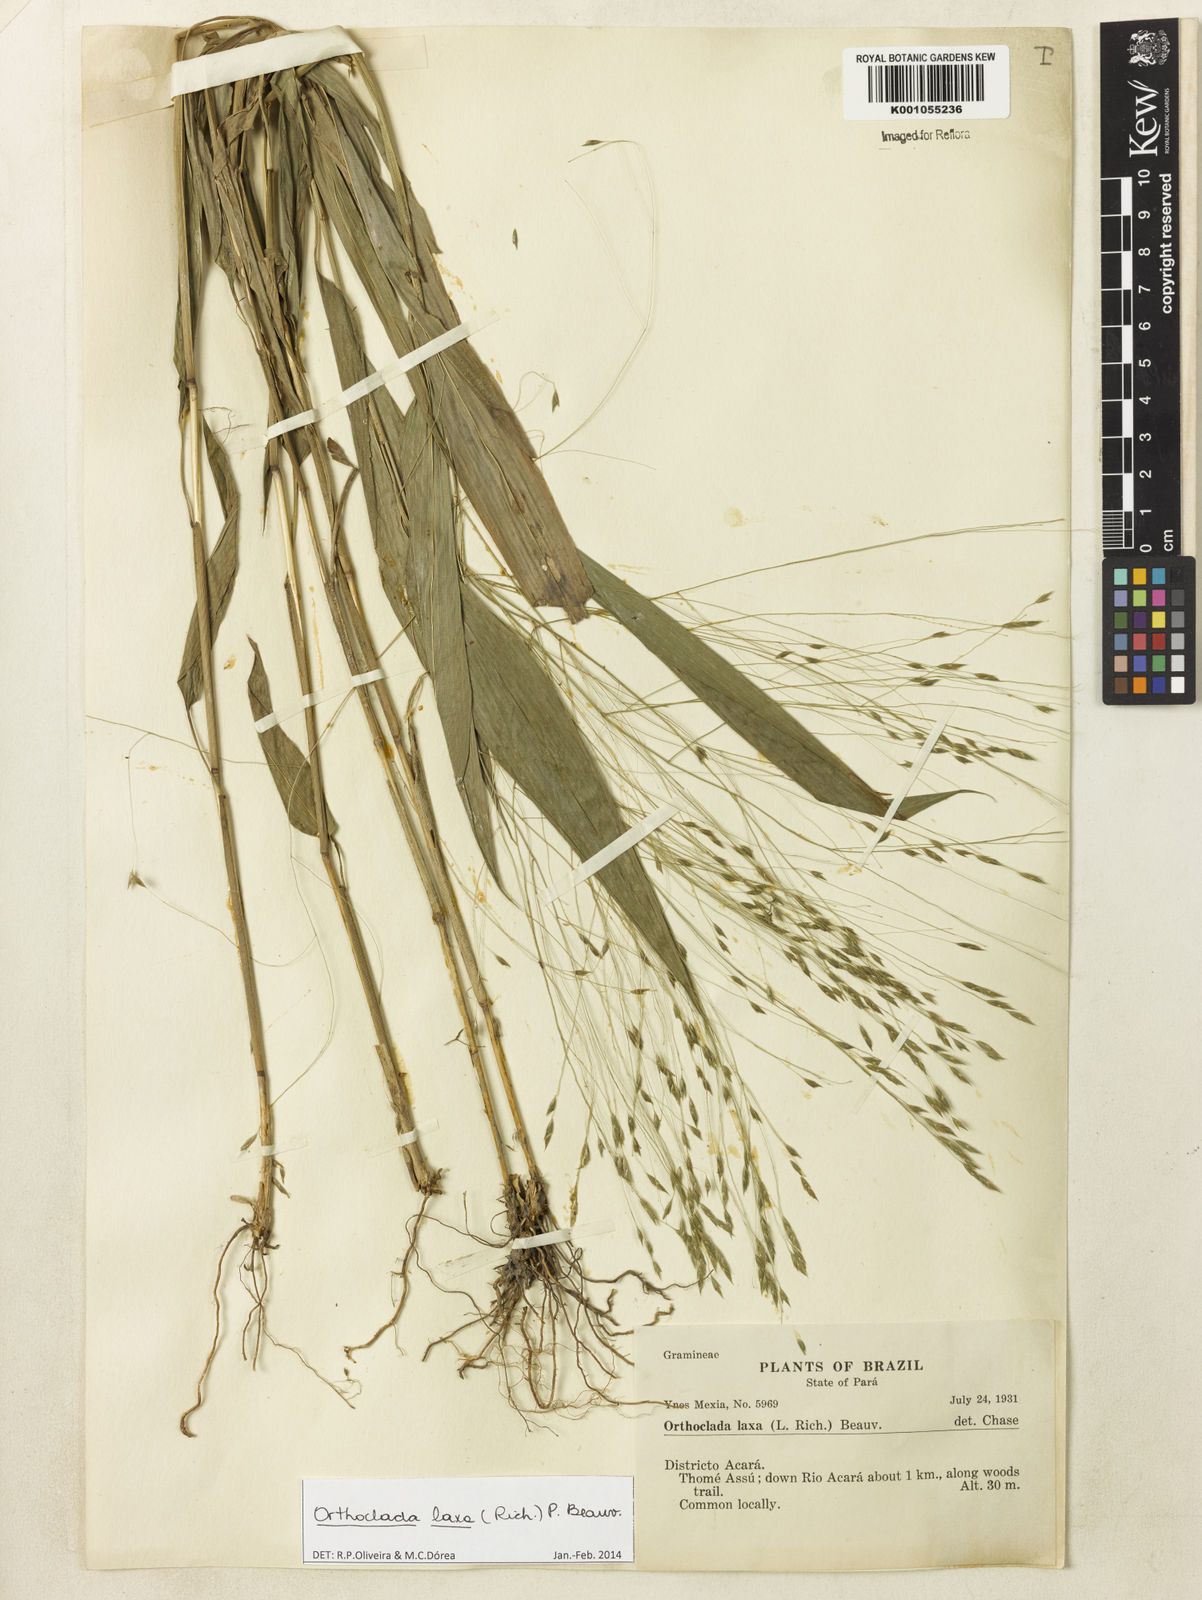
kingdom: Plantae
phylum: Tracheophyta
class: Liliopsida
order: Poales
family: Poaceae
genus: Orthoclada
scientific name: Orthoclada laxa
